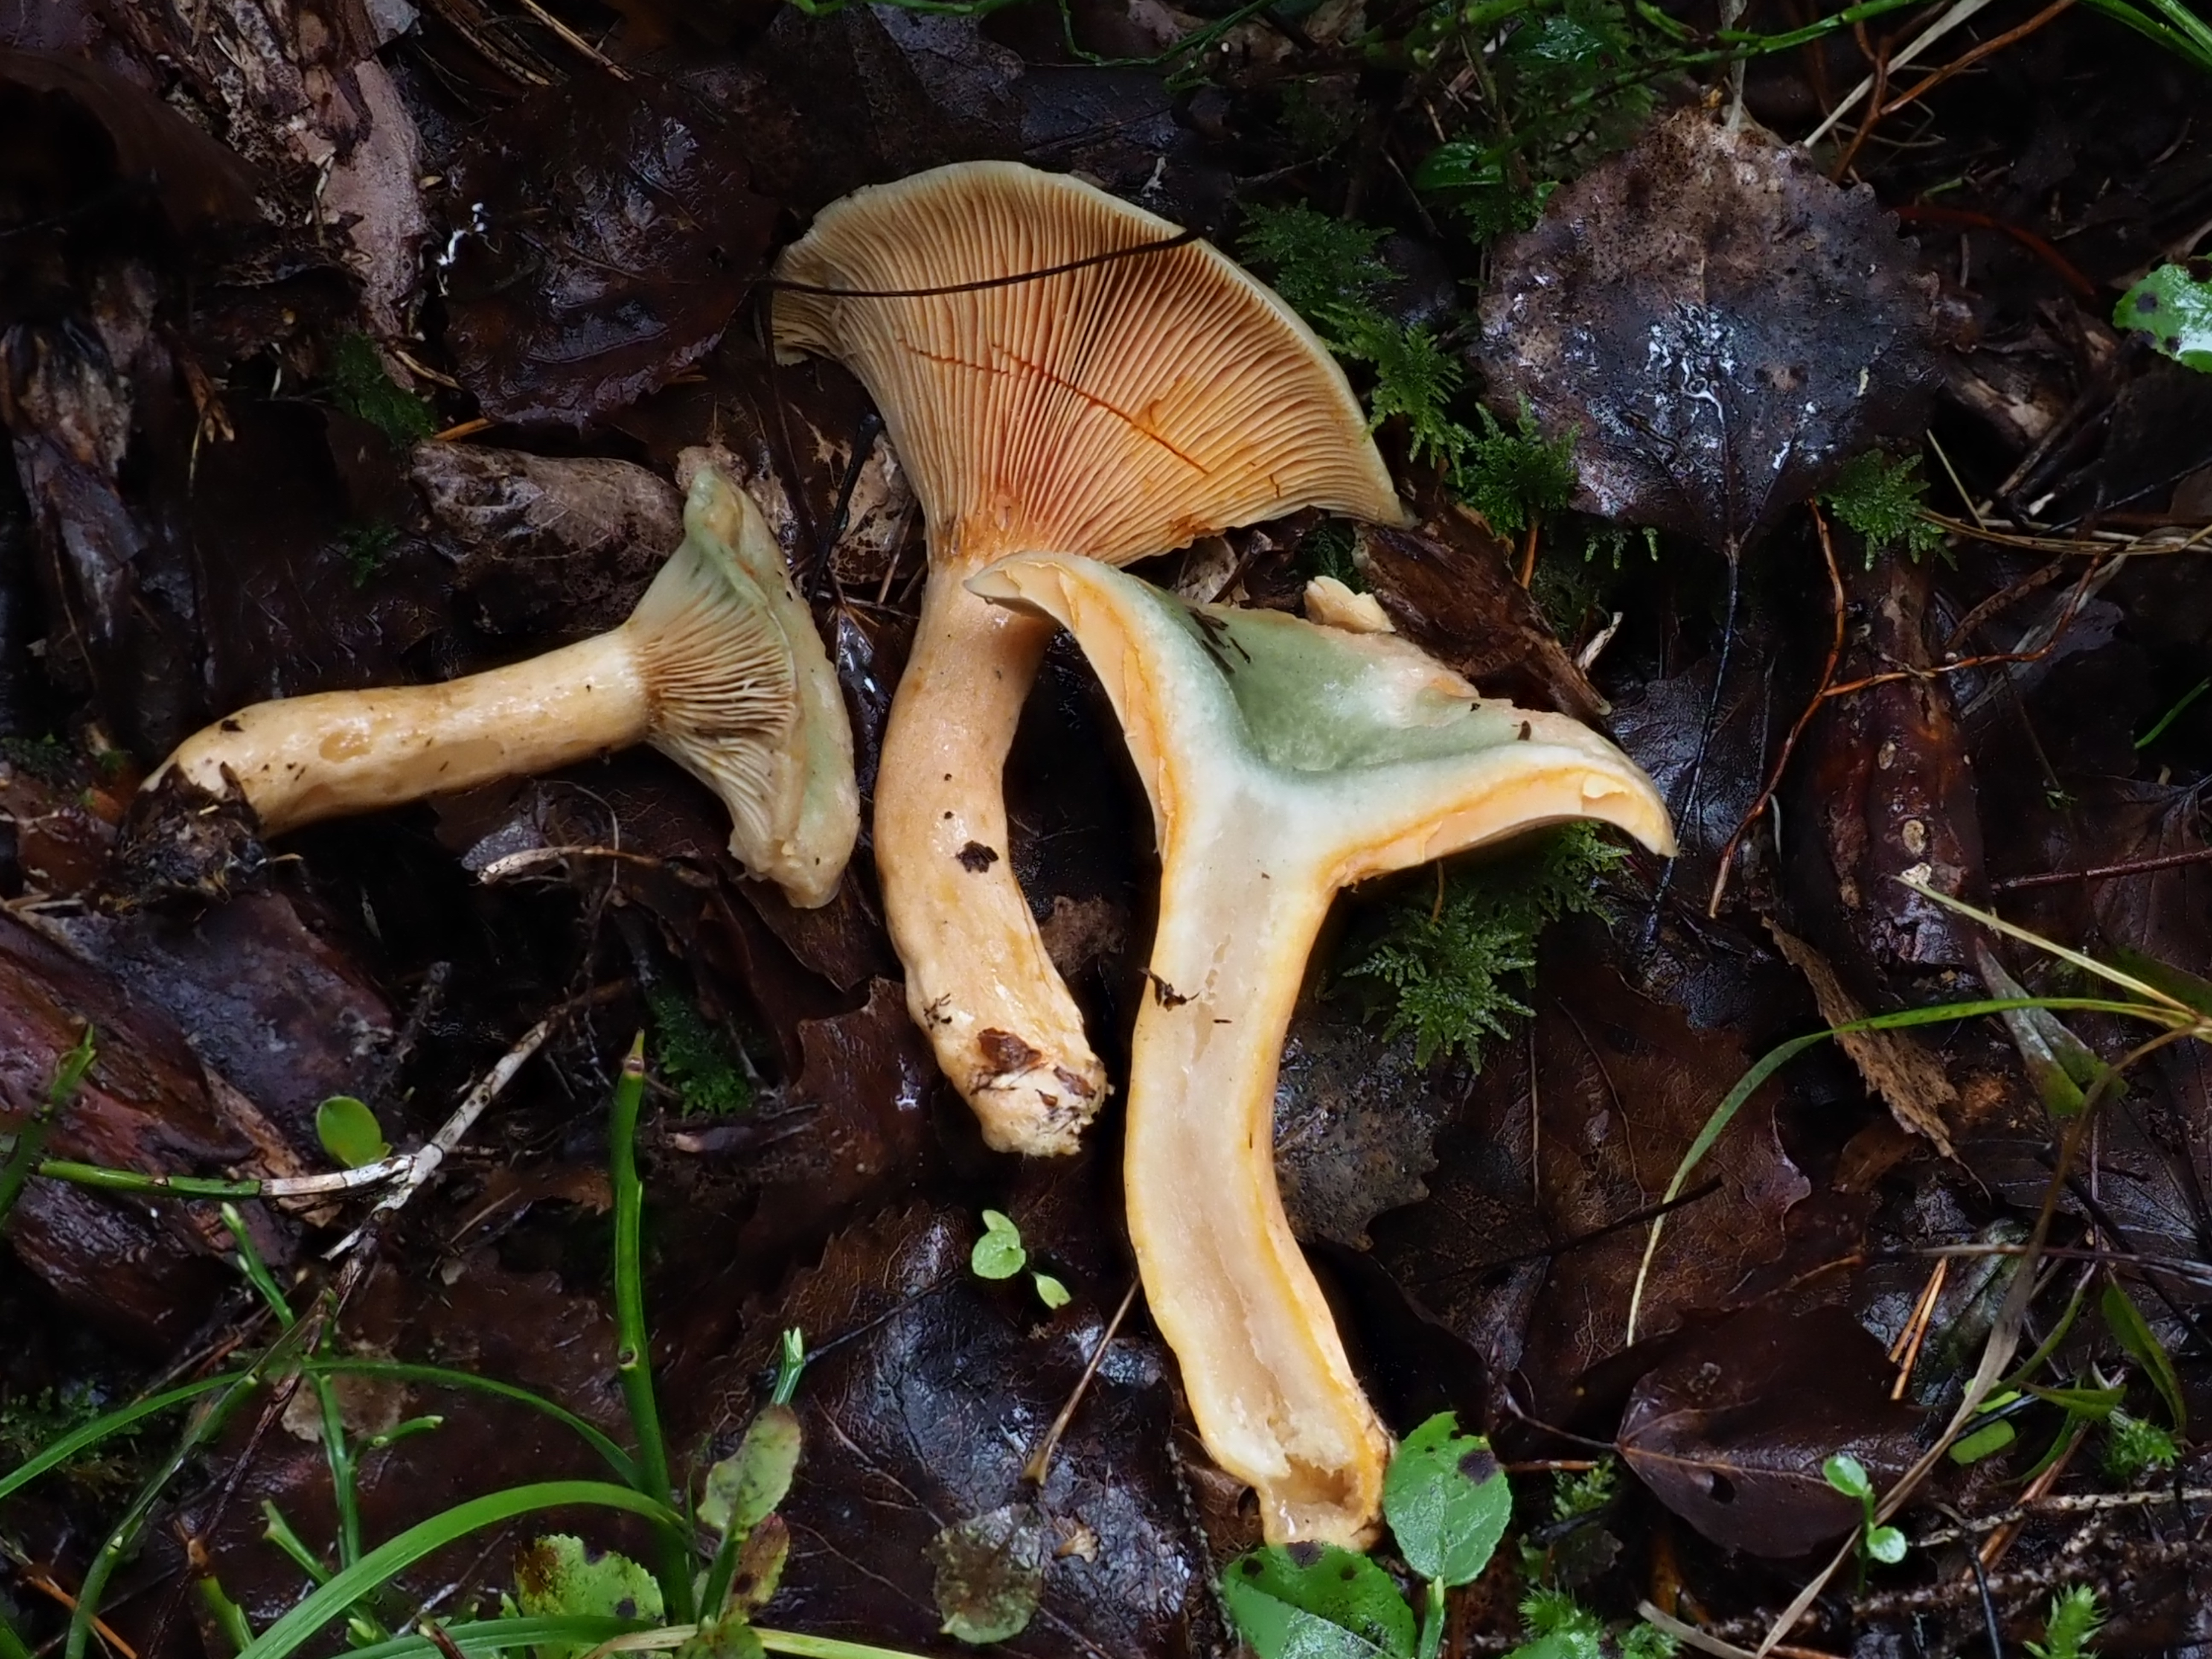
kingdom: Fungi
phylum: Basidiomycota
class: Agaricomycetes
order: Russulales
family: Russulaceae
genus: Lactarius
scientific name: Lactarius deterrimus
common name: False saffron milkcap
